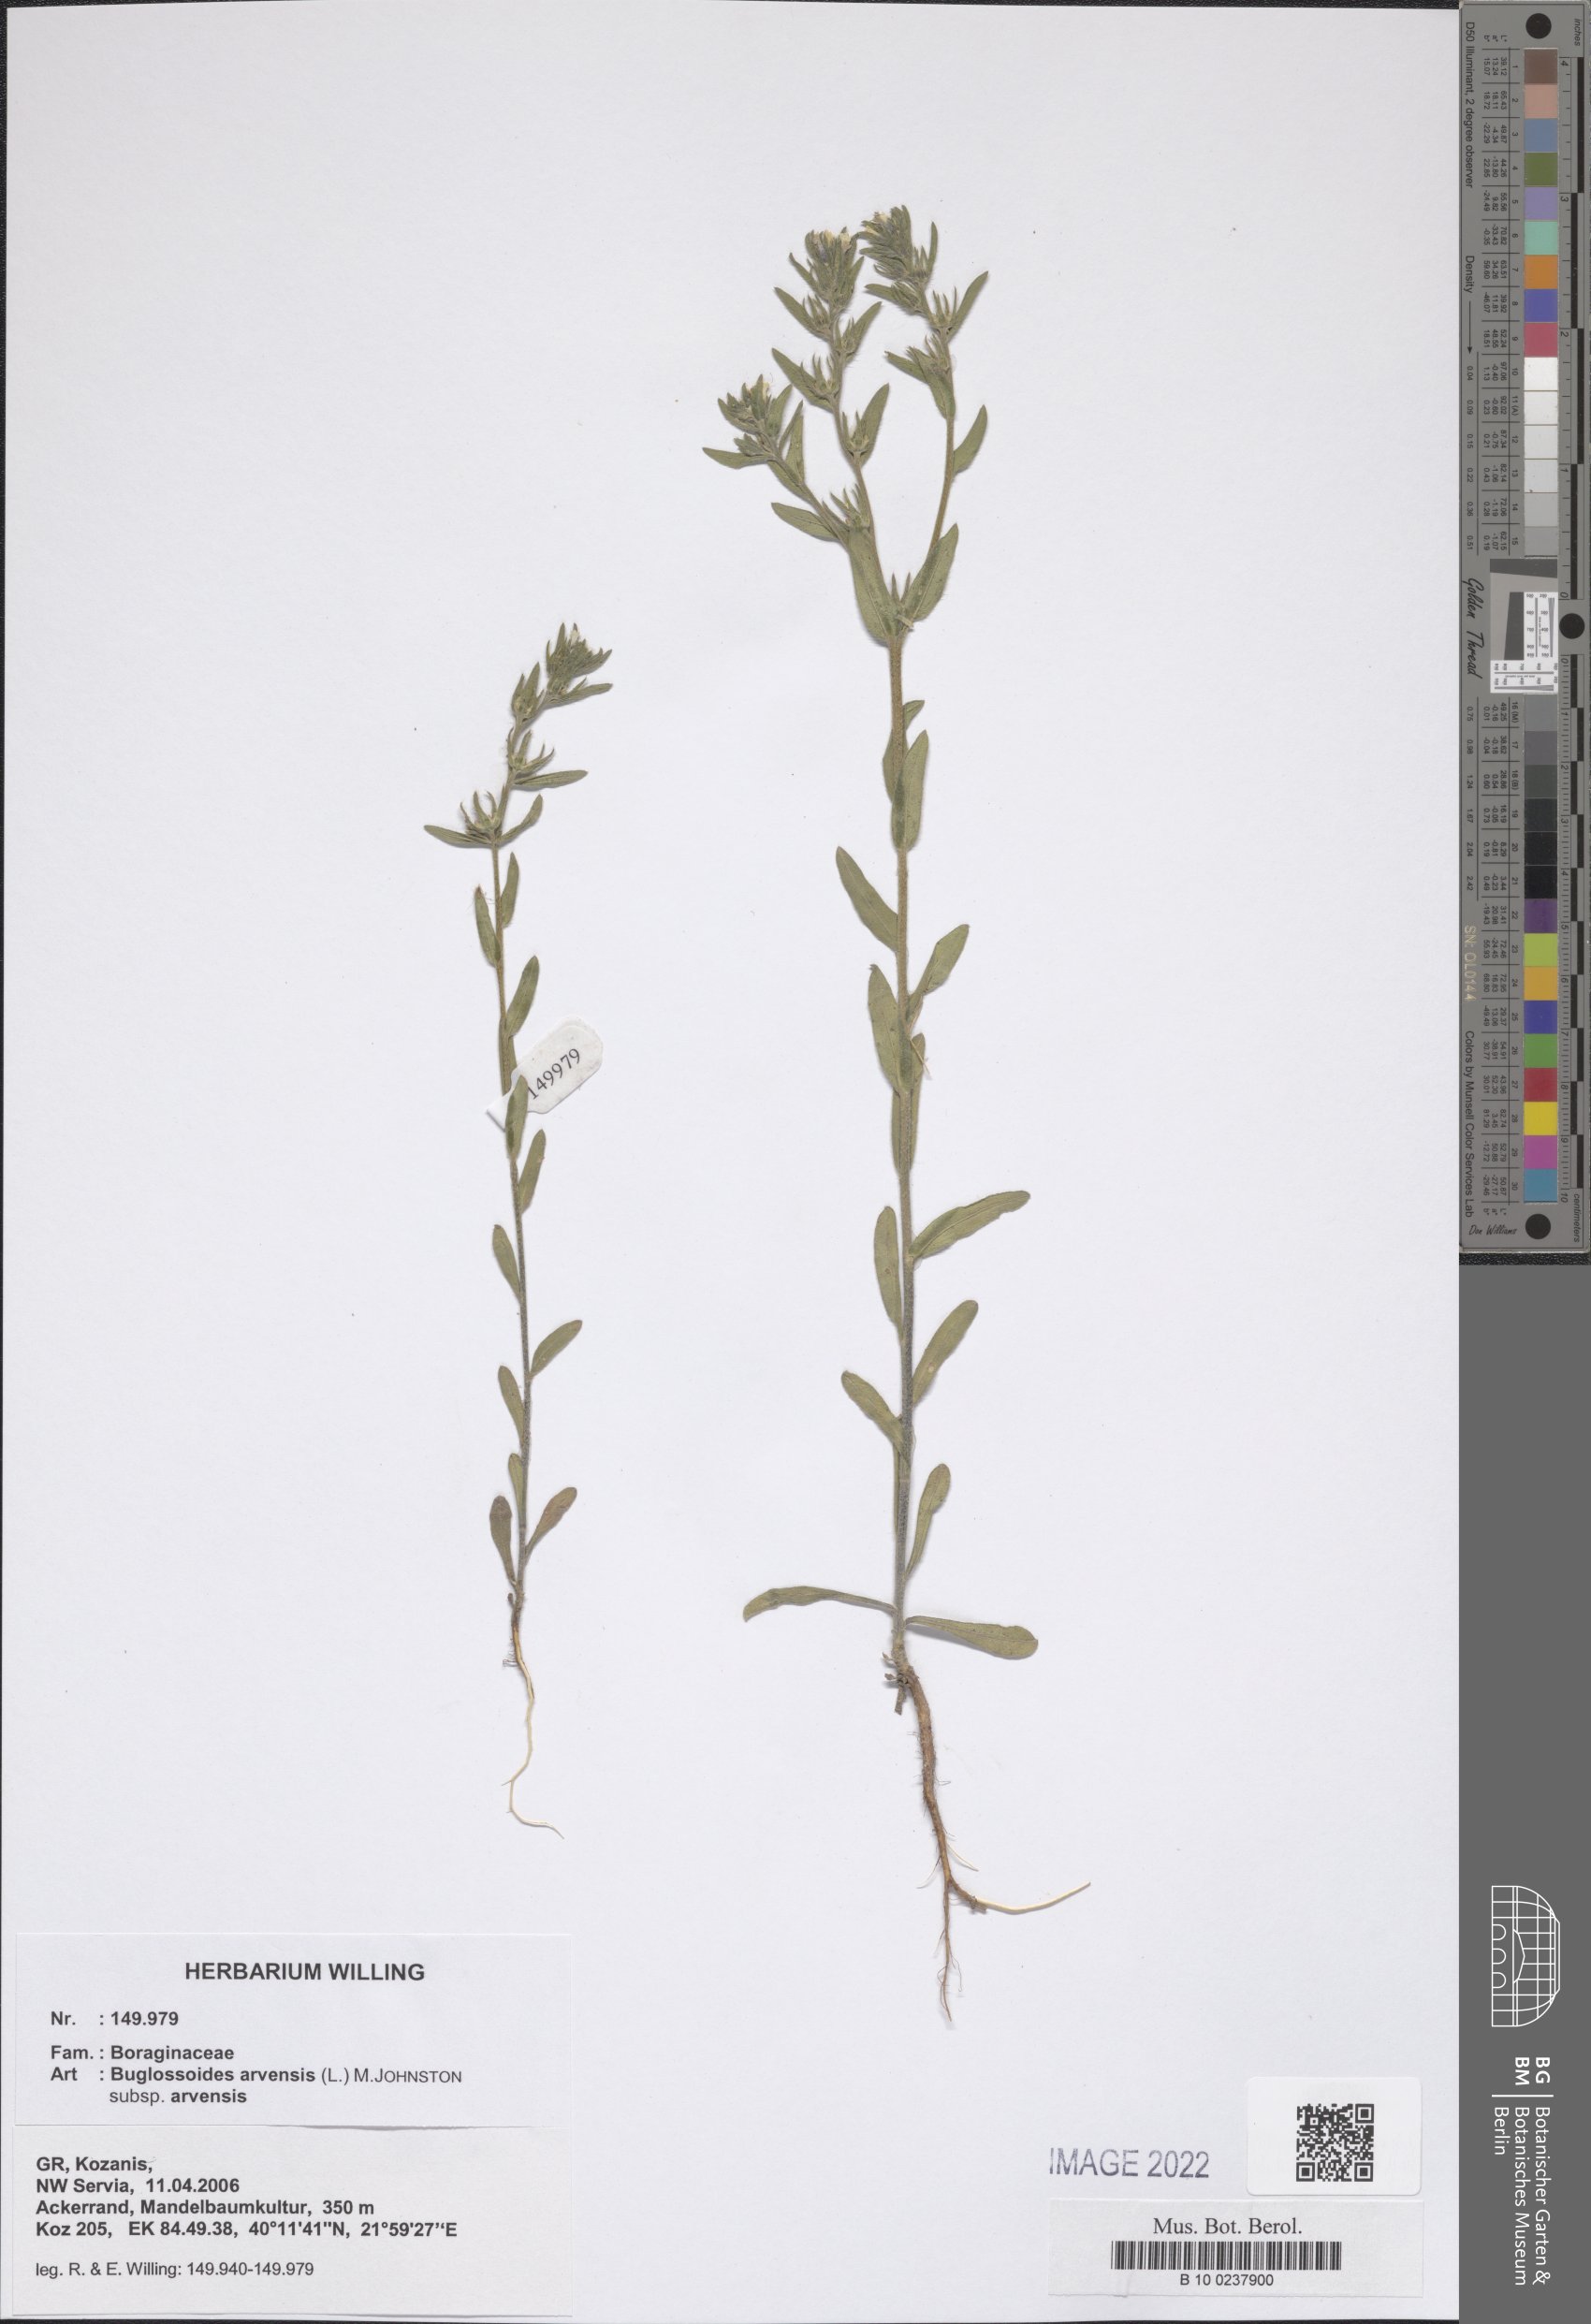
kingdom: Plantae
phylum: Tracheophyta
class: Magnoliopsida
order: Boraginales
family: Boraginaceae
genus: Buglossoides
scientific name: Buglossoides arvensis
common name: Corn gromwell
